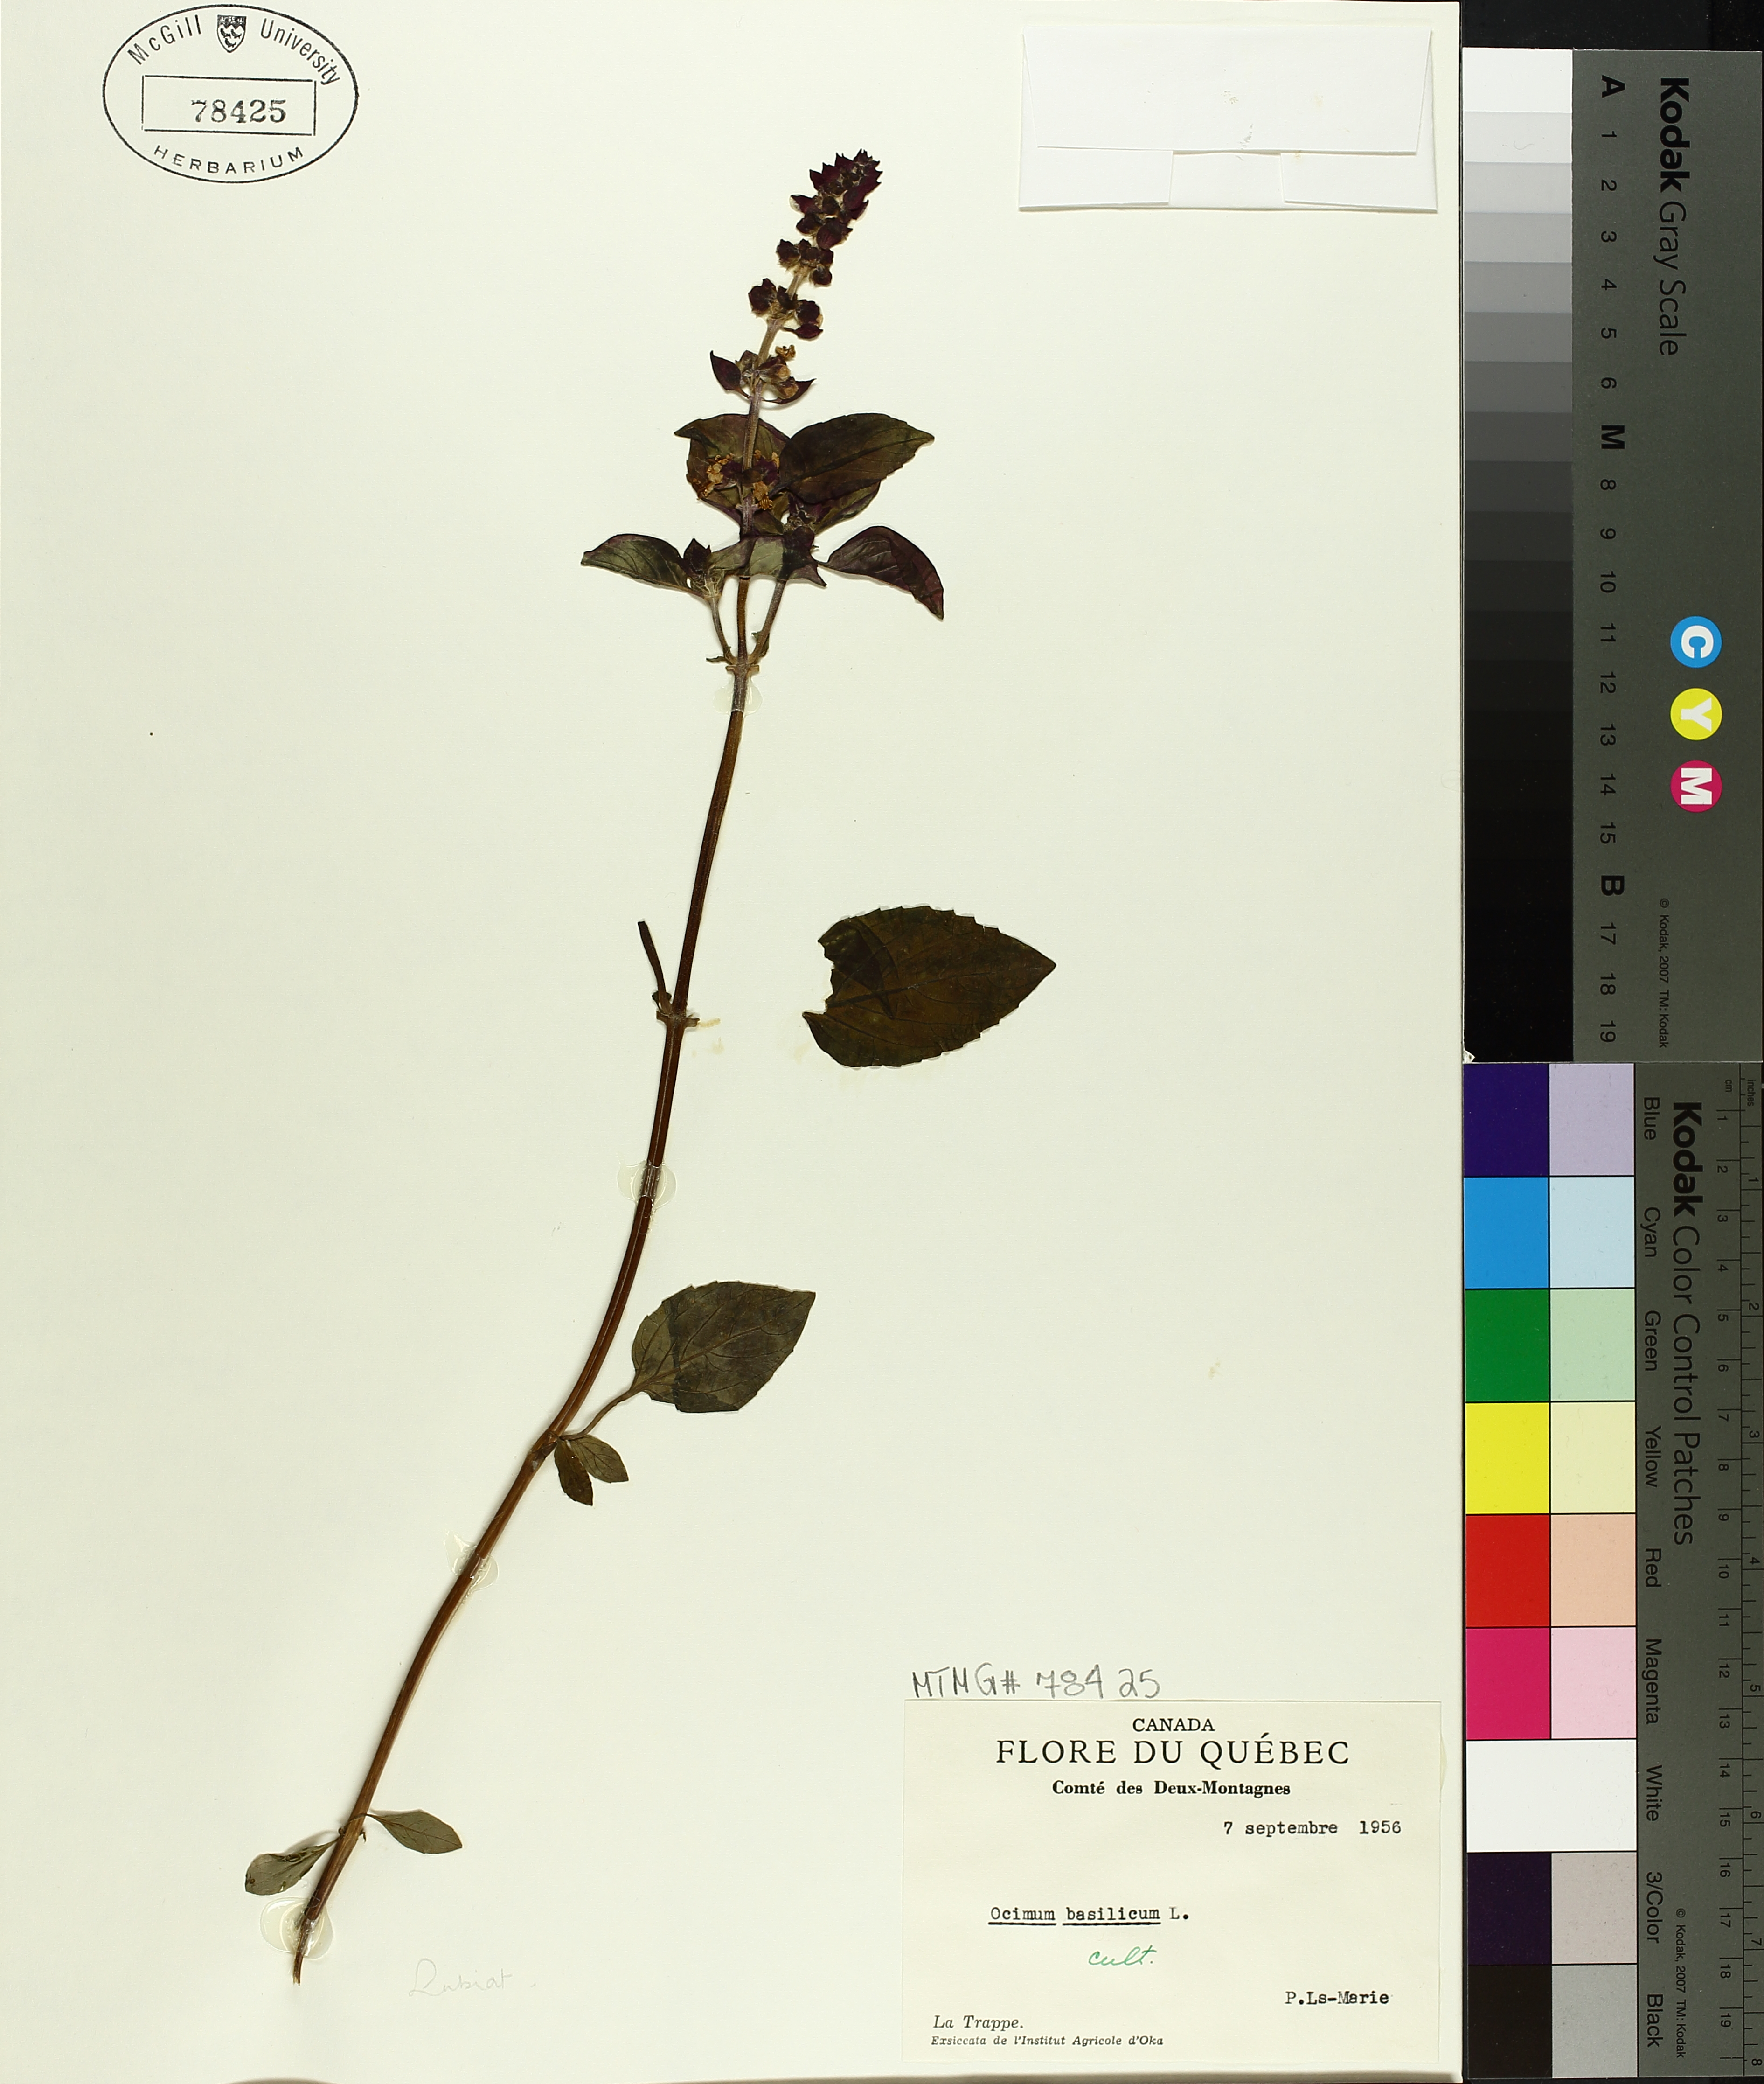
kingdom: Plantae
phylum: Tracheophyta
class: Magnoliopsida
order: Lamiales
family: Lamiaceae
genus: Ocimum
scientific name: Ocimum basilicum
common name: Sweet basil
